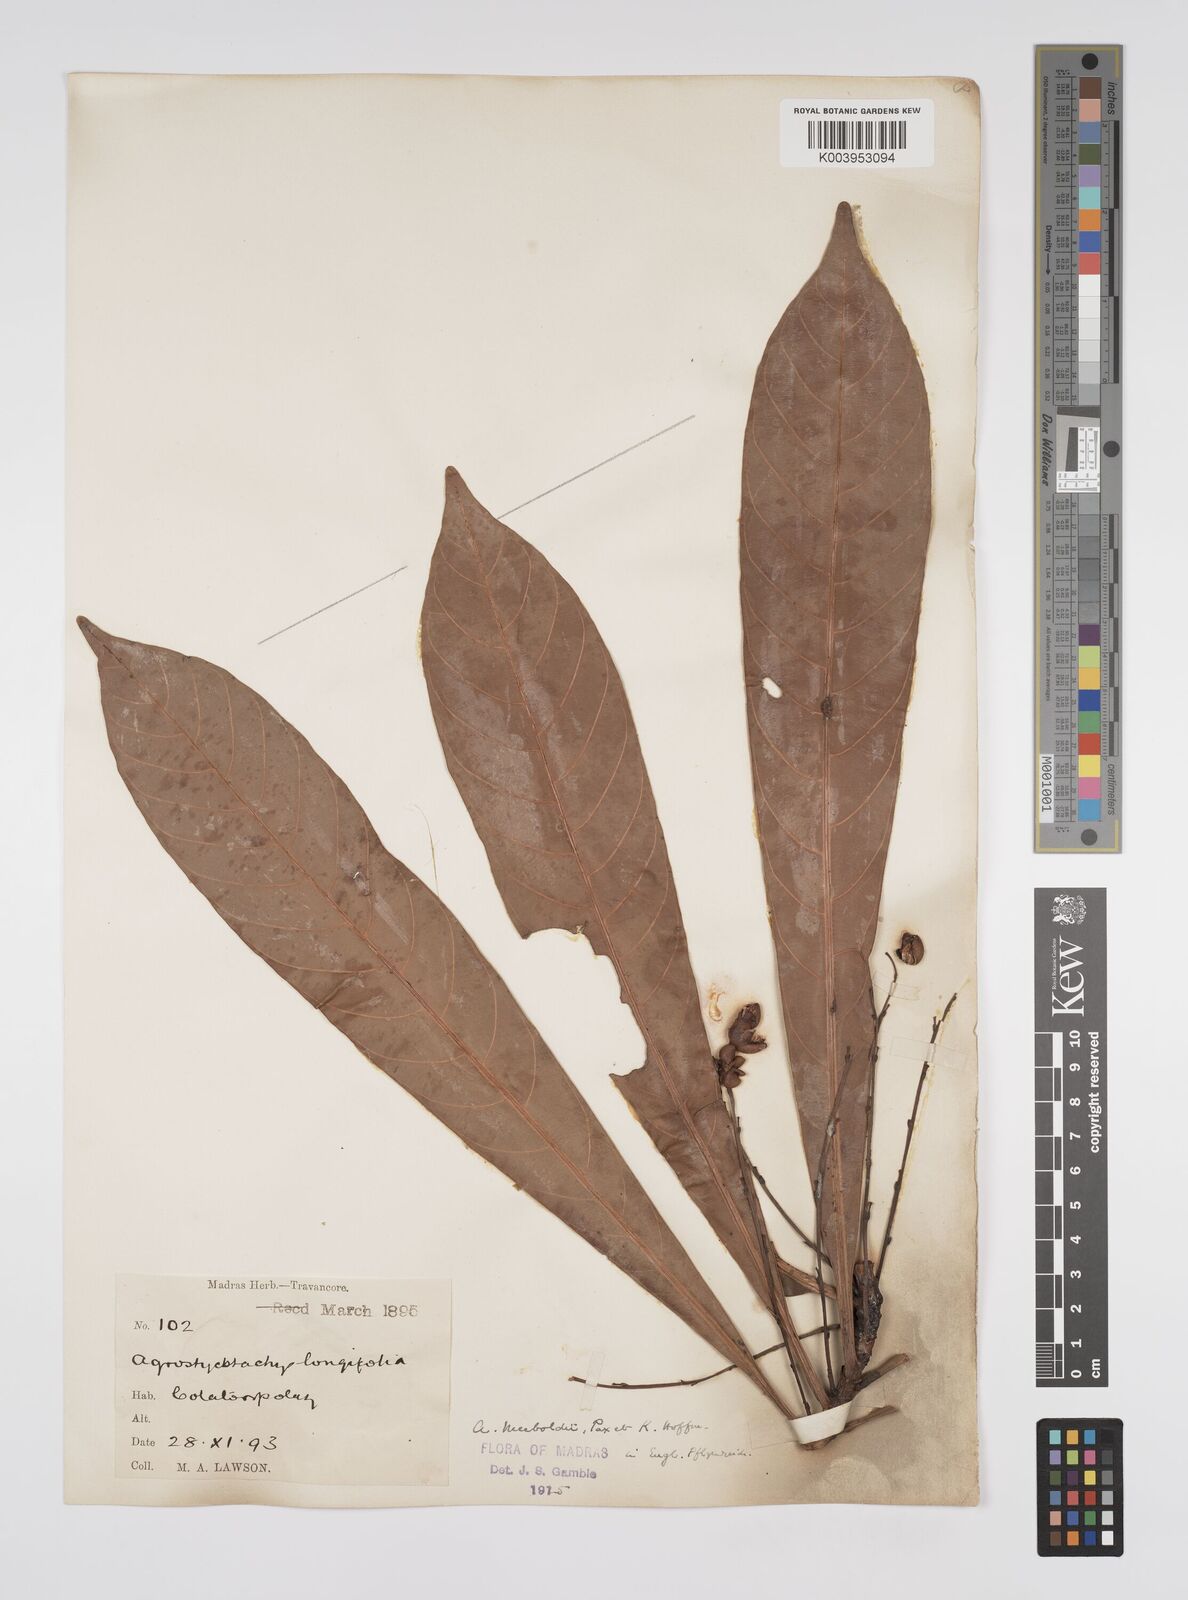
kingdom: Plantae
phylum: Tracheophyta
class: Magnoliopsida
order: Malpighiales
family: Euphorbiaceae
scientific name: Euphorbiaceae
